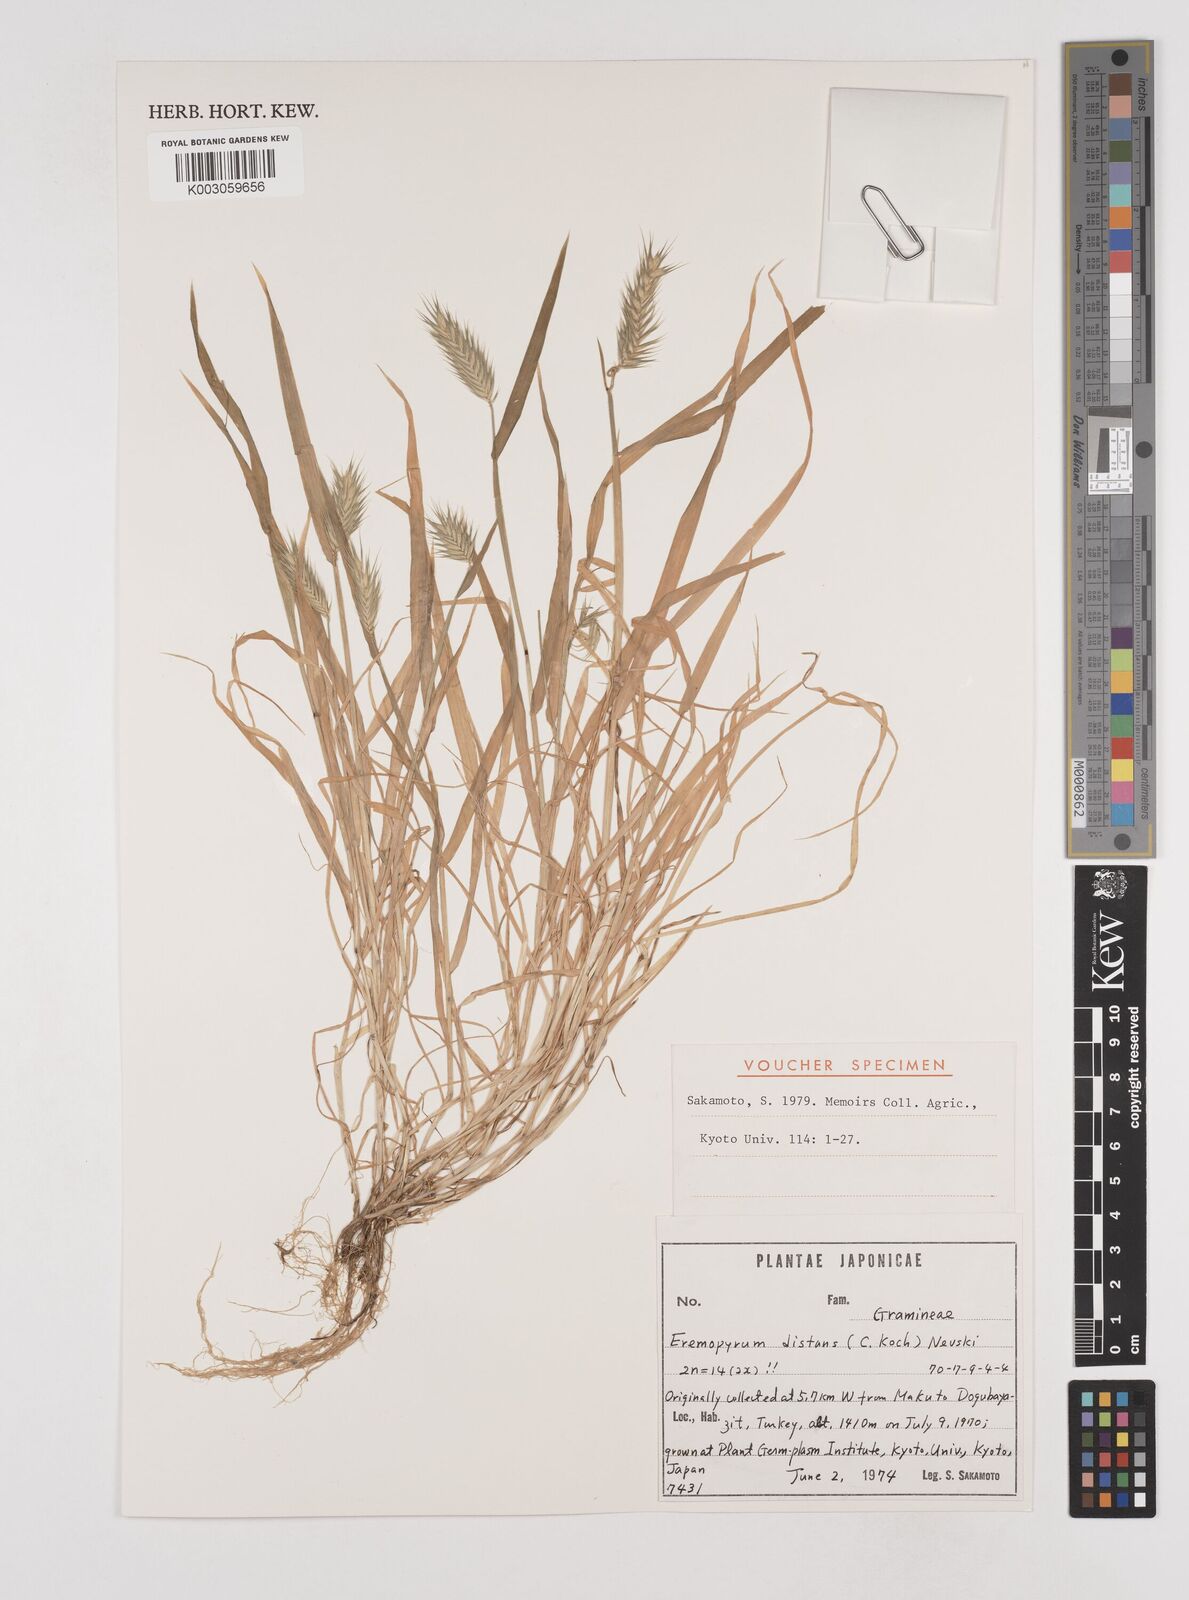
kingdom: Plantae
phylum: Tracheophyta
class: Liliopsida
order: Poales
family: Poaceae
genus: Eremopyrum
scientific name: Eremopyrum distans
